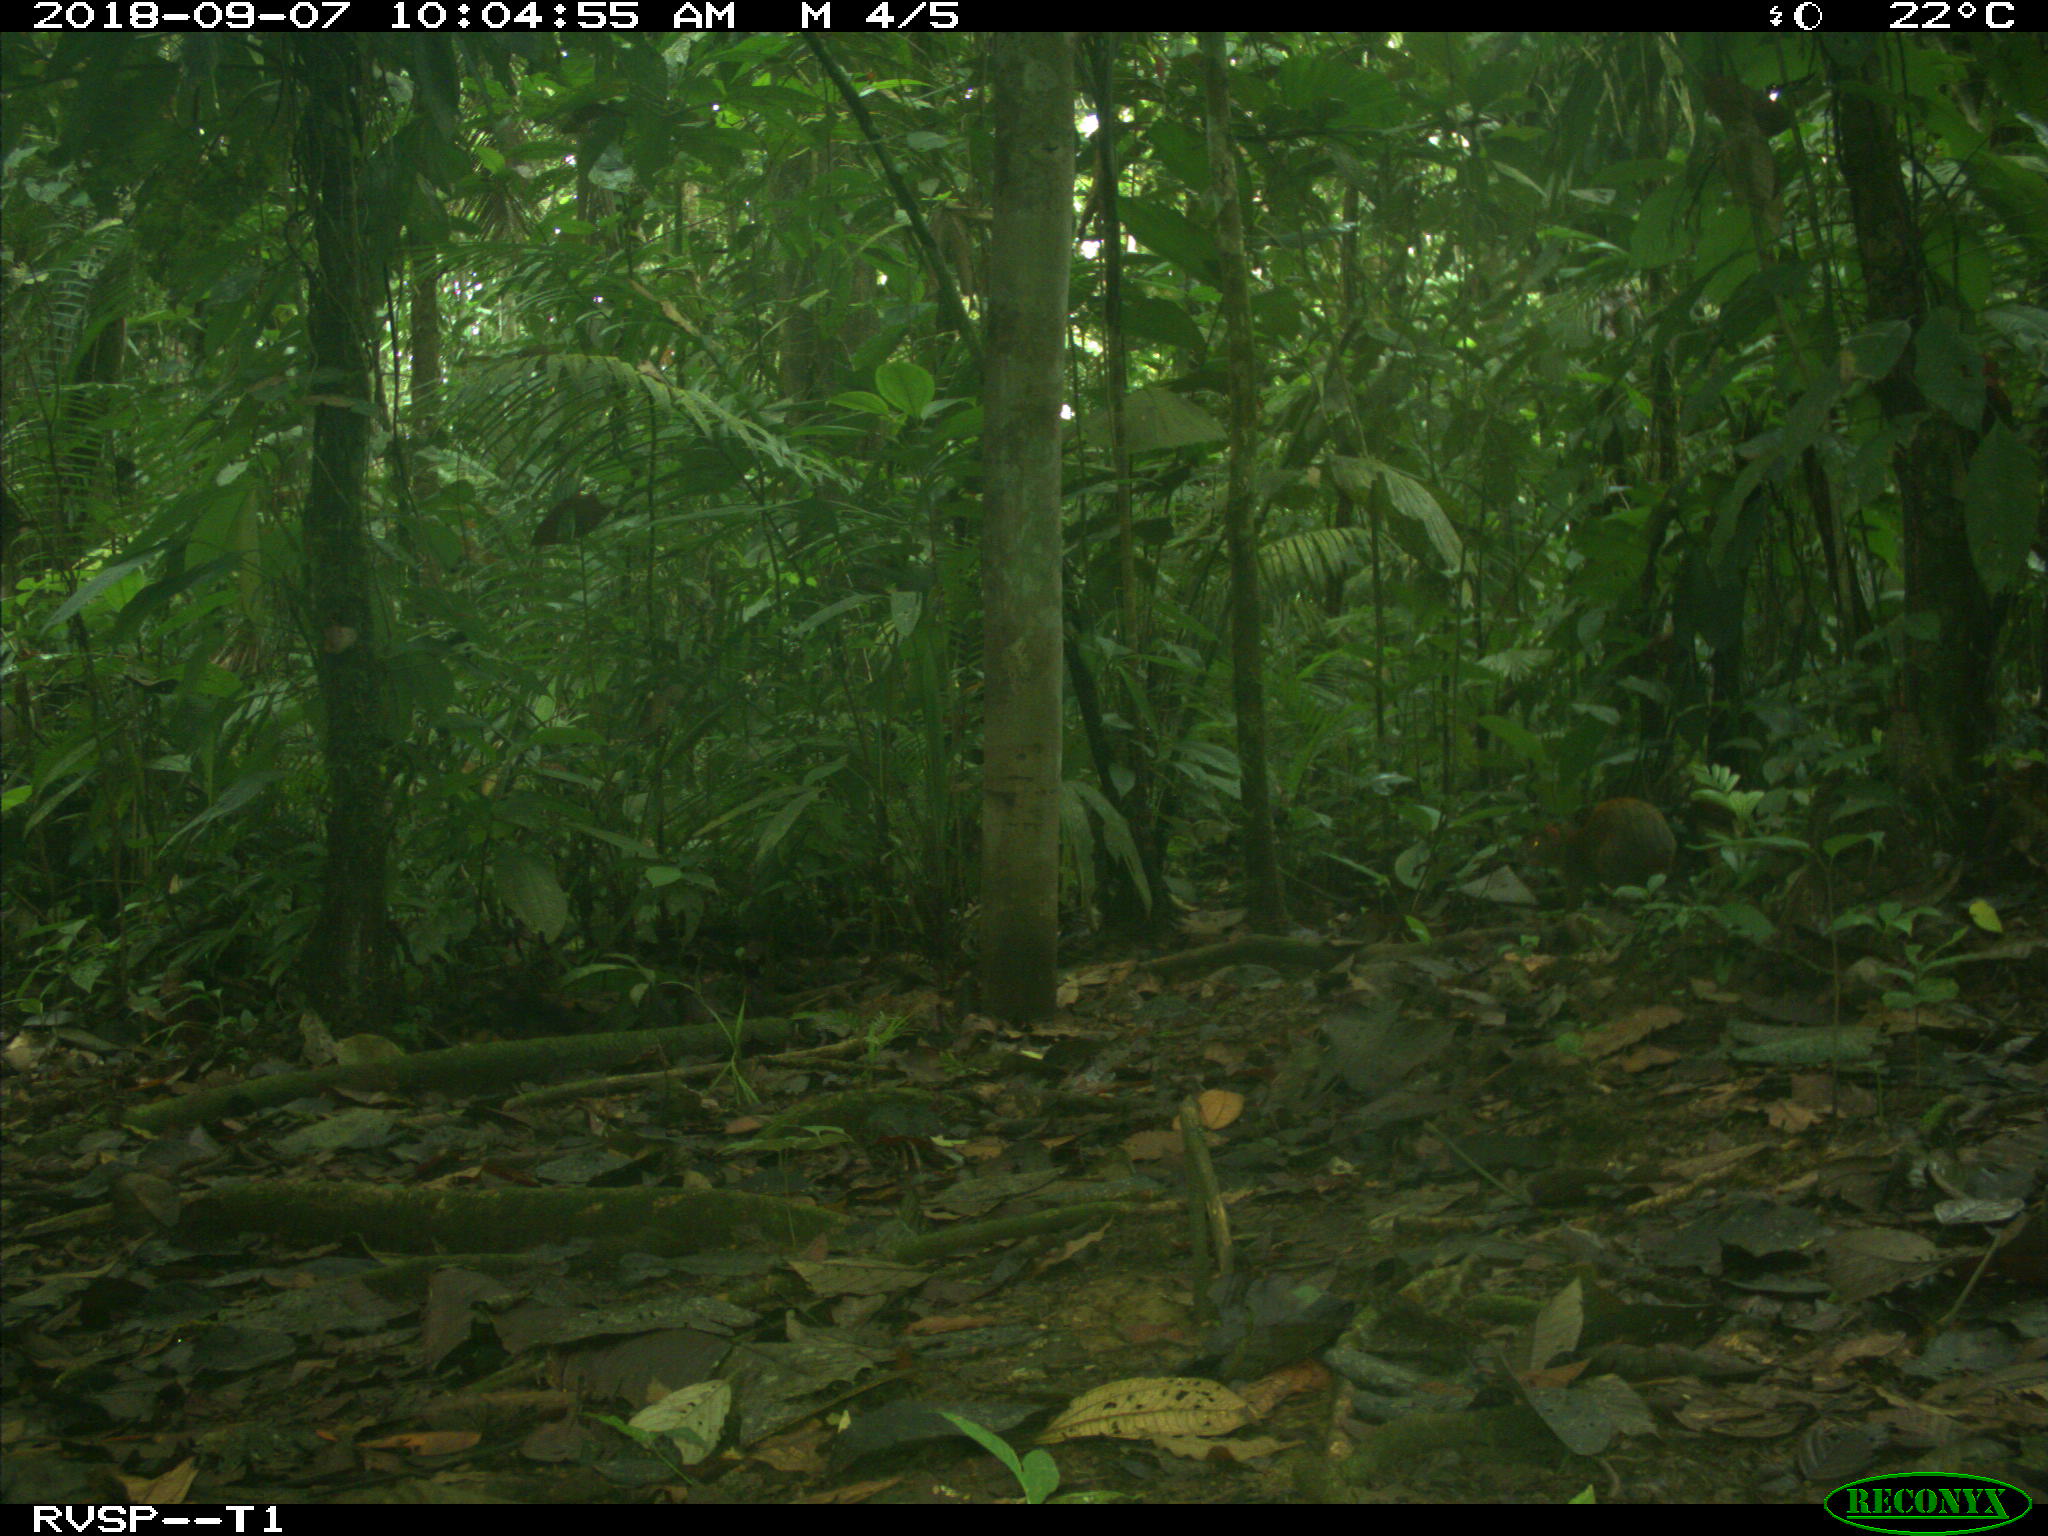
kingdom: Animalia
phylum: Chordata
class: Mammalia
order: Rodentia
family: Dasyproctidae
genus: Dasyprocta
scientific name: Dasyprocta punctata
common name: Central american agouti
